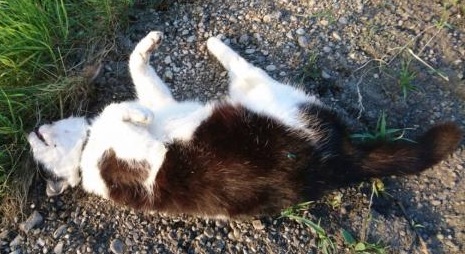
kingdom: Animalia
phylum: Chordata
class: Mammalia
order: Carnivora
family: Felidae
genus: Felis
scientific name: Felis catus
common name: Domestic cat
